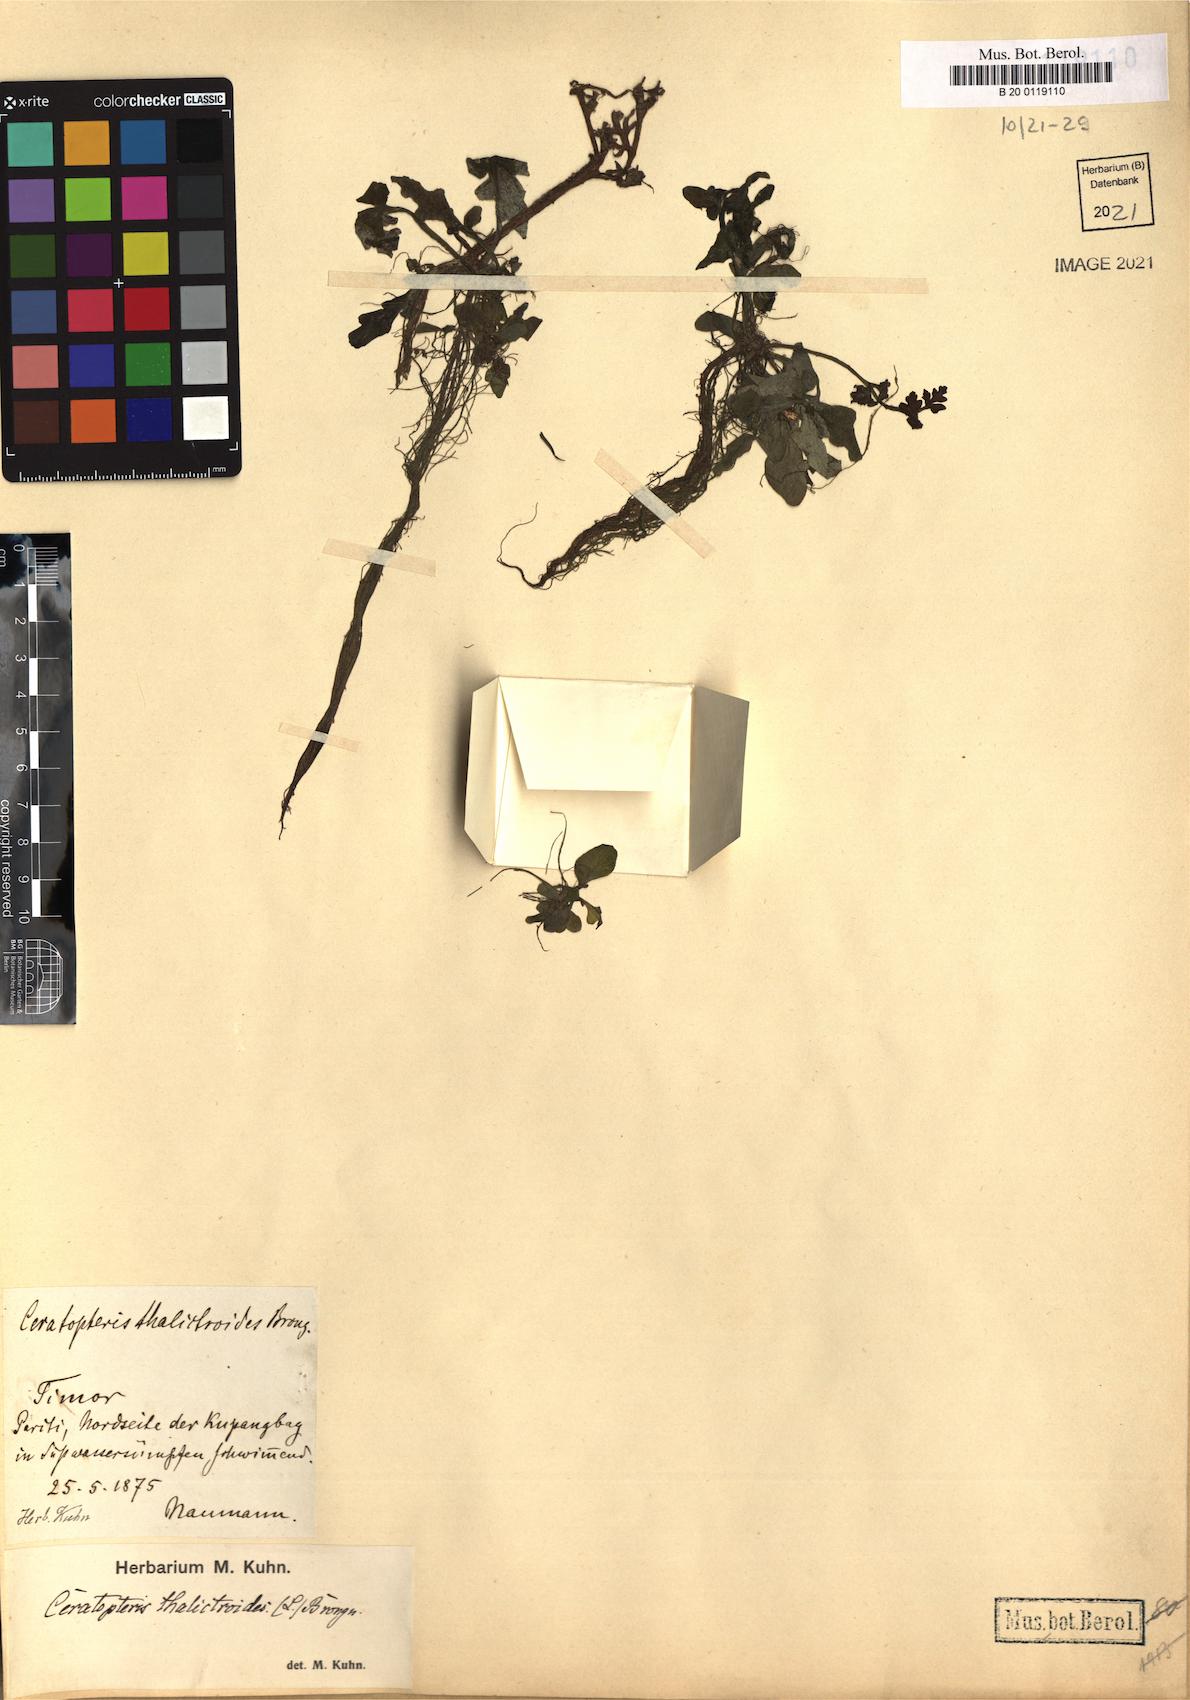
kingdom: Plantae
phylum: Tracheophyta
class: Polypodiopsida
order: Polypodiales
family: Pteridaceae
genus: Ceratopteris
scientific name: Ceratopteris thalictroides
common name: Water fern
